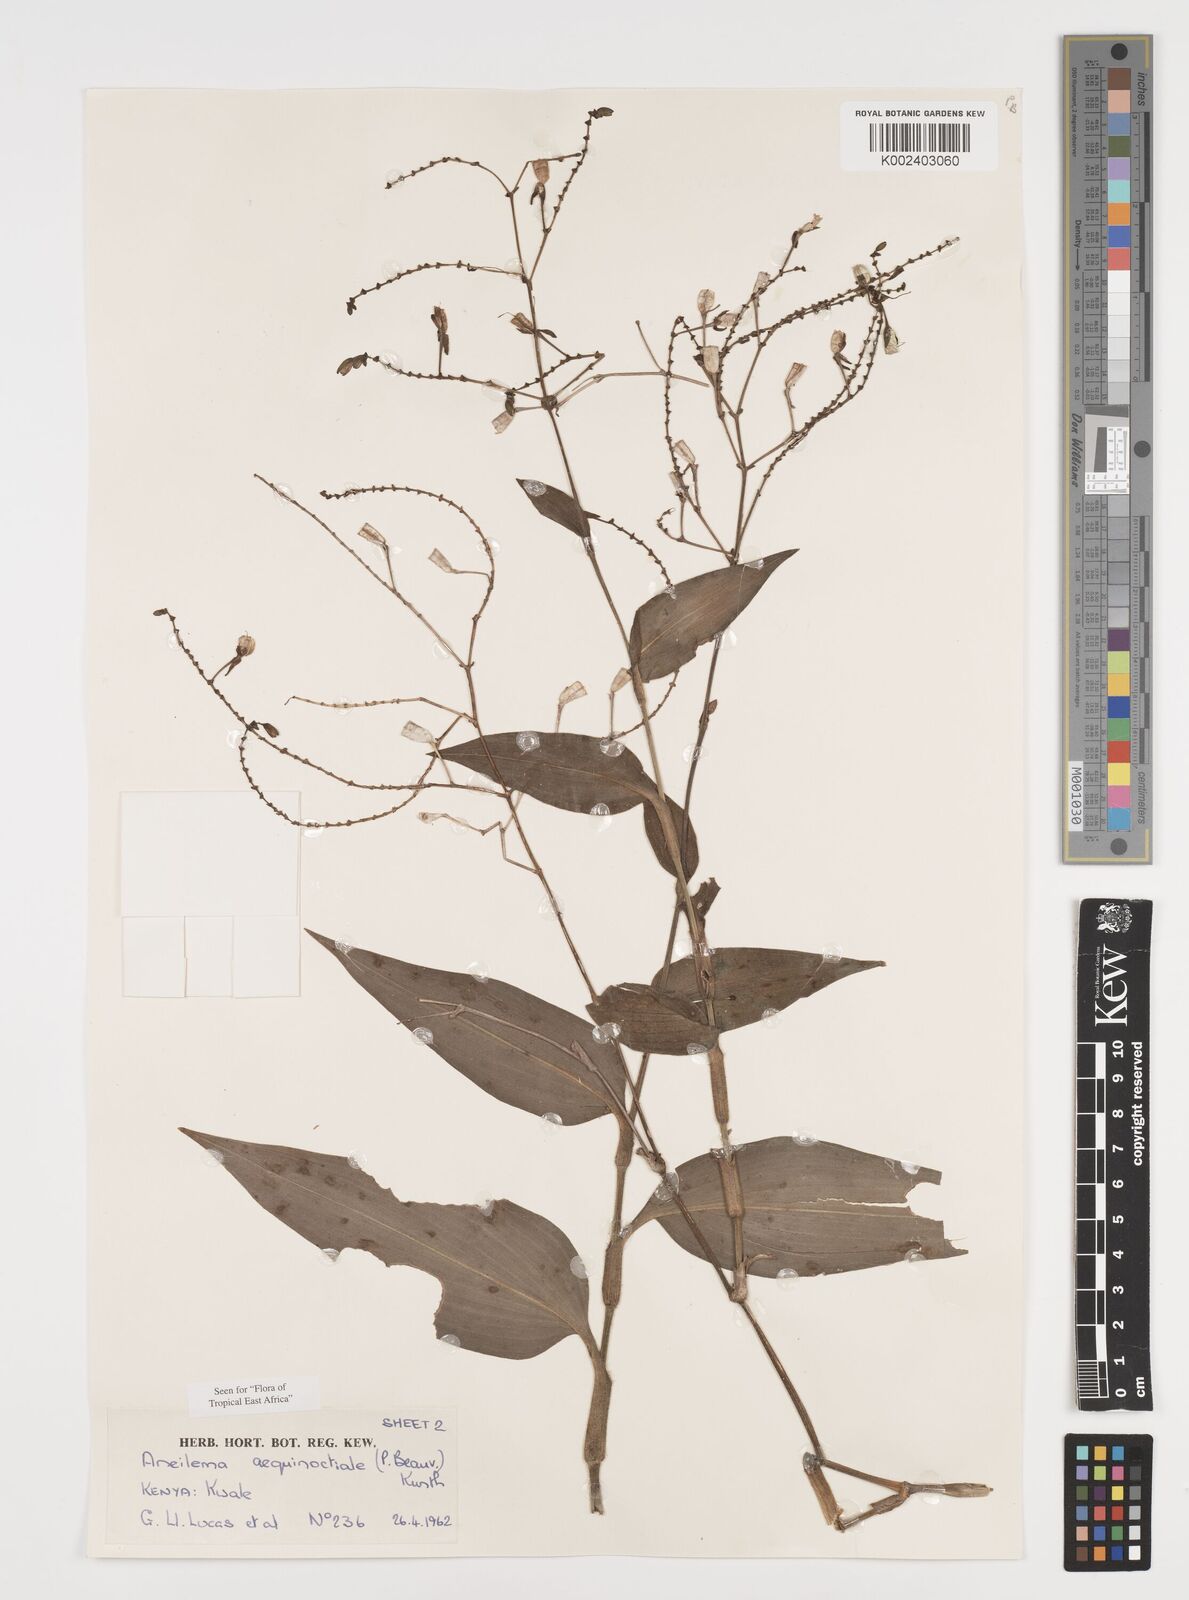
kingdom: Plantae
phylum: Tracheophyta
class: Liliopsida
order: Commelinales
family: Commelinaceae
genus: Aneilema
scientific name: Aneilema aequinoctiale
